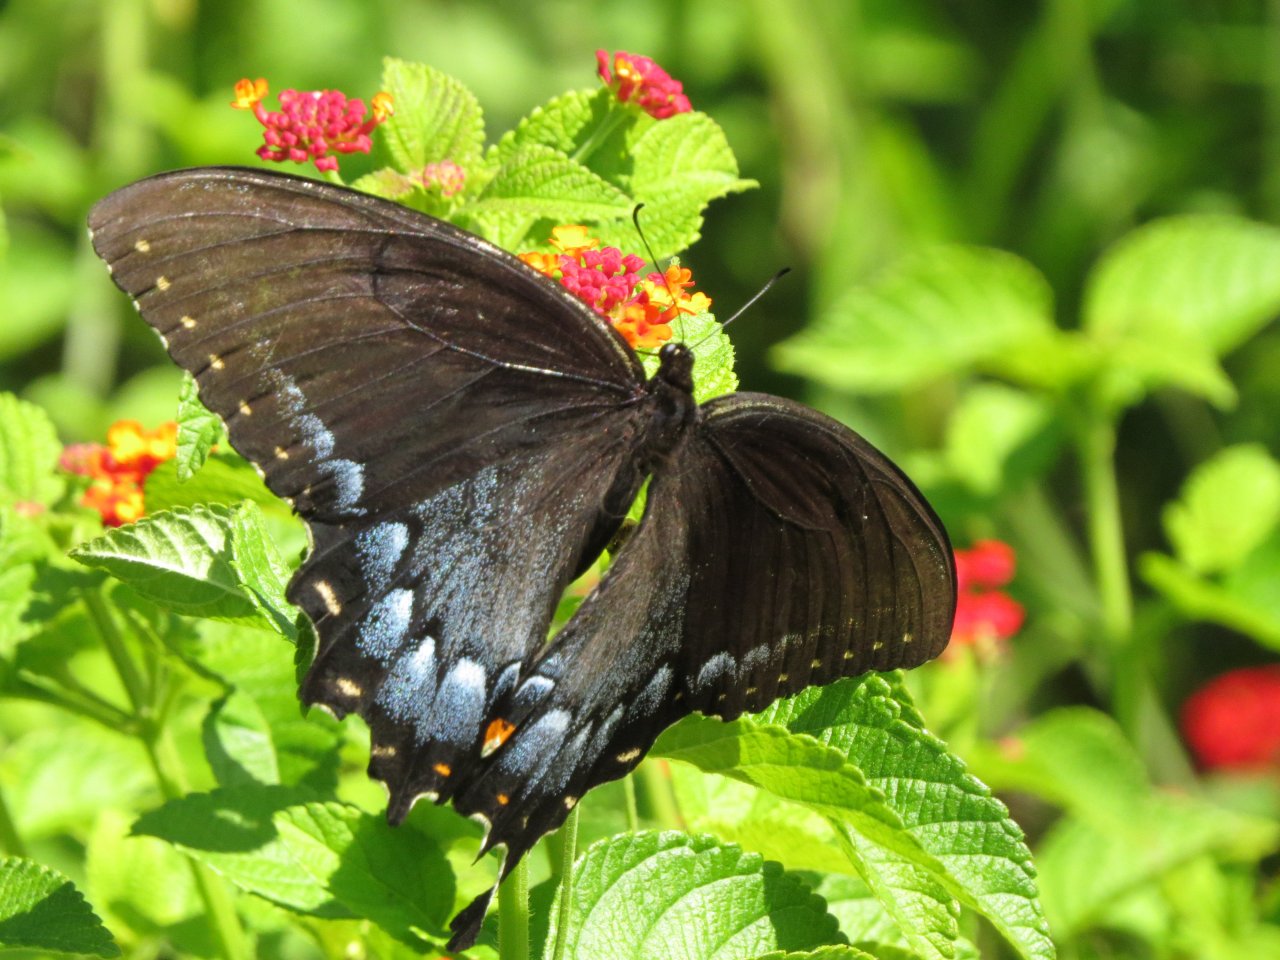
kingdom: Animalia
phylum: Arthropoda
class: Insecta
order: Lepidoptera
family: Papilionidae
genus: Pterourus
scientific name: Pterourus glaucus
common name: Eastern Tiger Swallowtail
